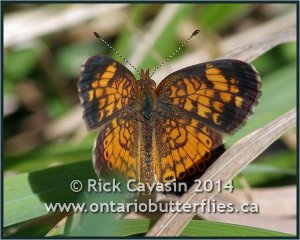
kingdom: Animalia
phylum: Arthropoda
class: Insecta
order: Lepidoptera
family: Nymphalidae
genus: Phyciodes
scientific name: Phyciodes tharos
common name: Pearl Crescent
